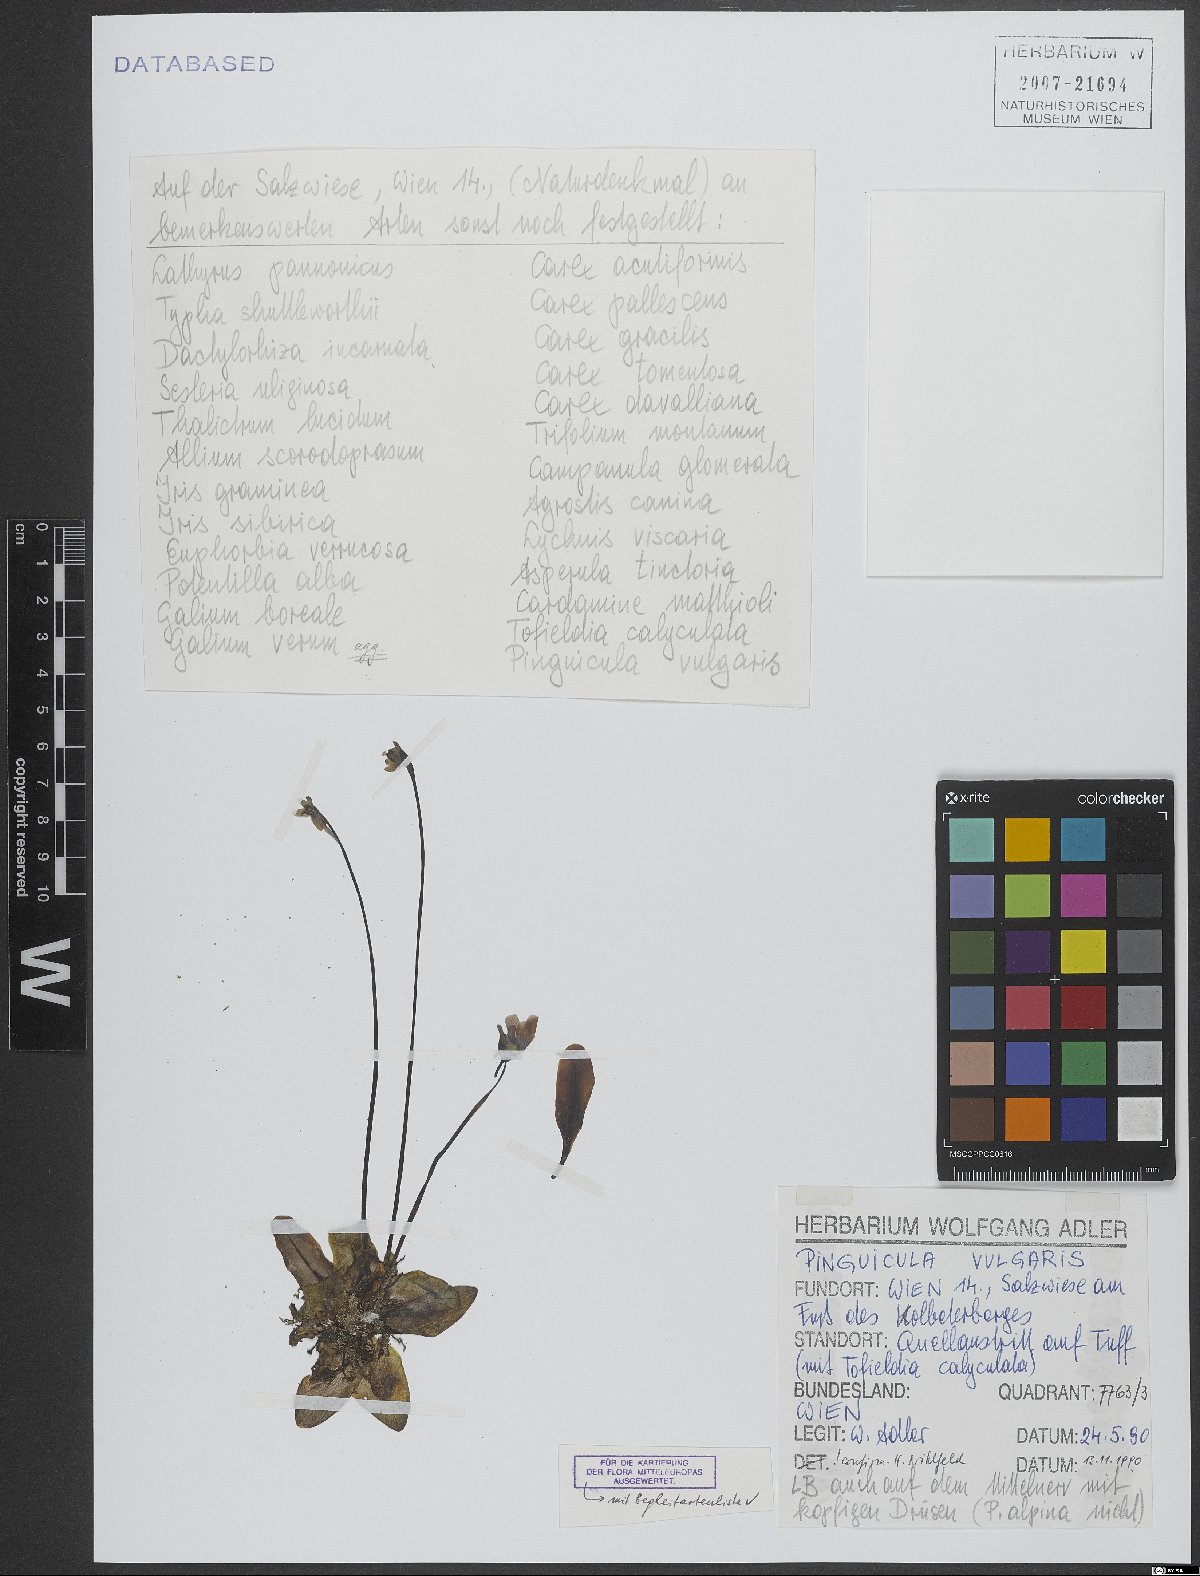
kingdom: Plantae
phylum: Tracheophyta
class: Magnoliopsida
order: Lamiales
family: Lentibulariaceae
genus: Pinguicula
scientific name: Pinguicula vulgaris
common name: Common butterwort
